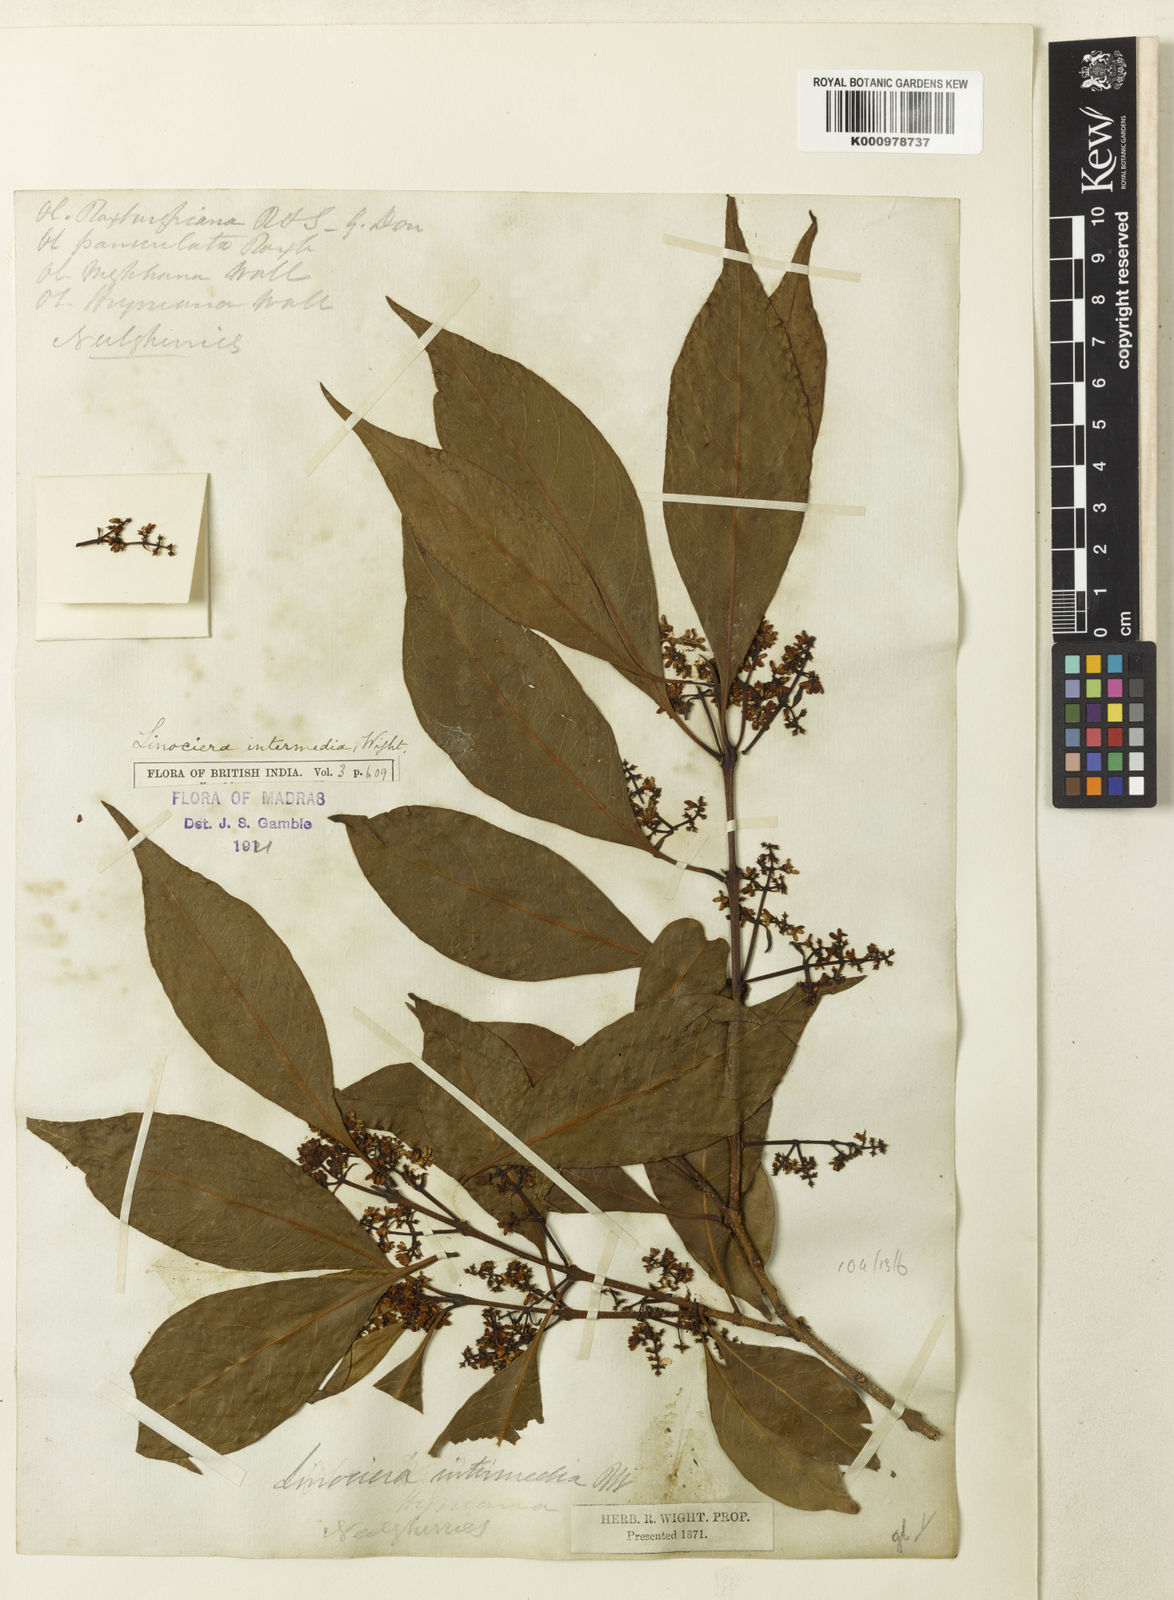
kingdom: Plantae
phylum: Tracheophyta
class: Magnoliopsida
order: Lamiales
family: Oleaceae
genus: Chionanthus
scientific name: Chionanthus
